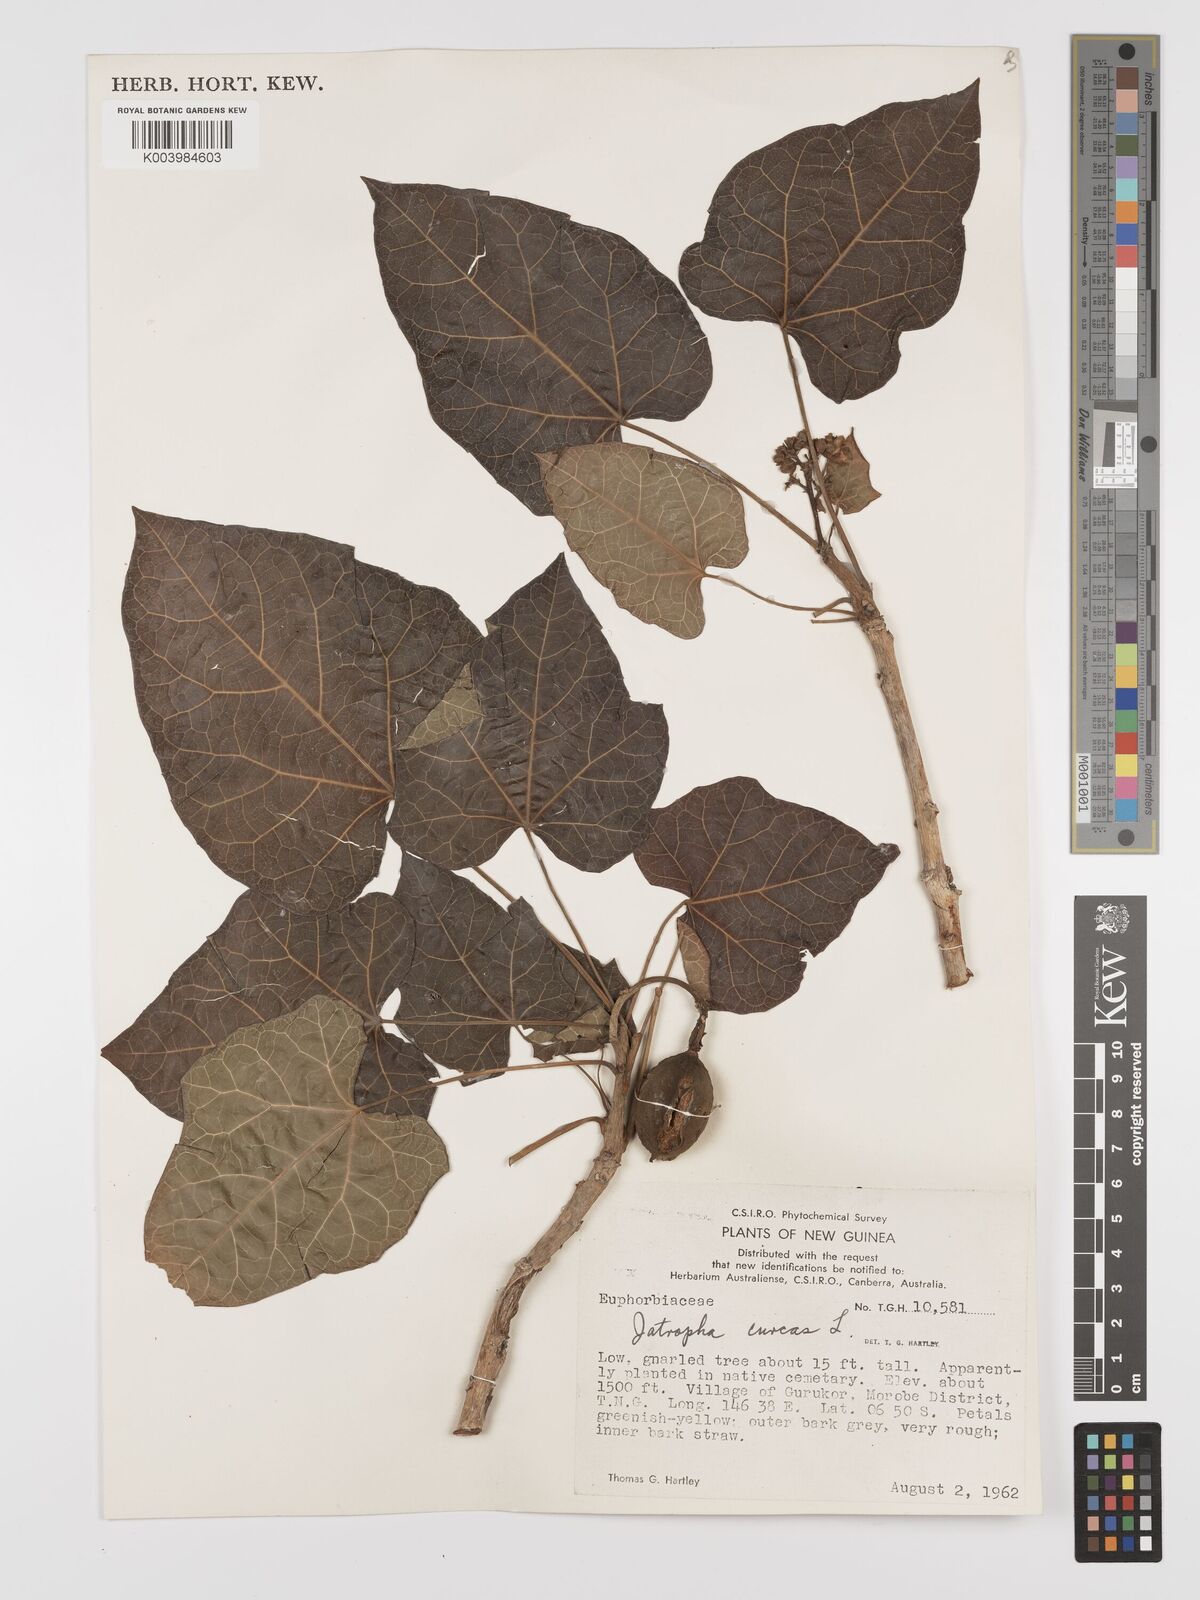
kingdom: Plantae
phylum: Tracheophyta
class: Magnoliopsida
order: Malpighiales
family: Euphorbiaceae
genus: Jatropha
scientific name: Jatropha curcas
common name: Barbados nut
